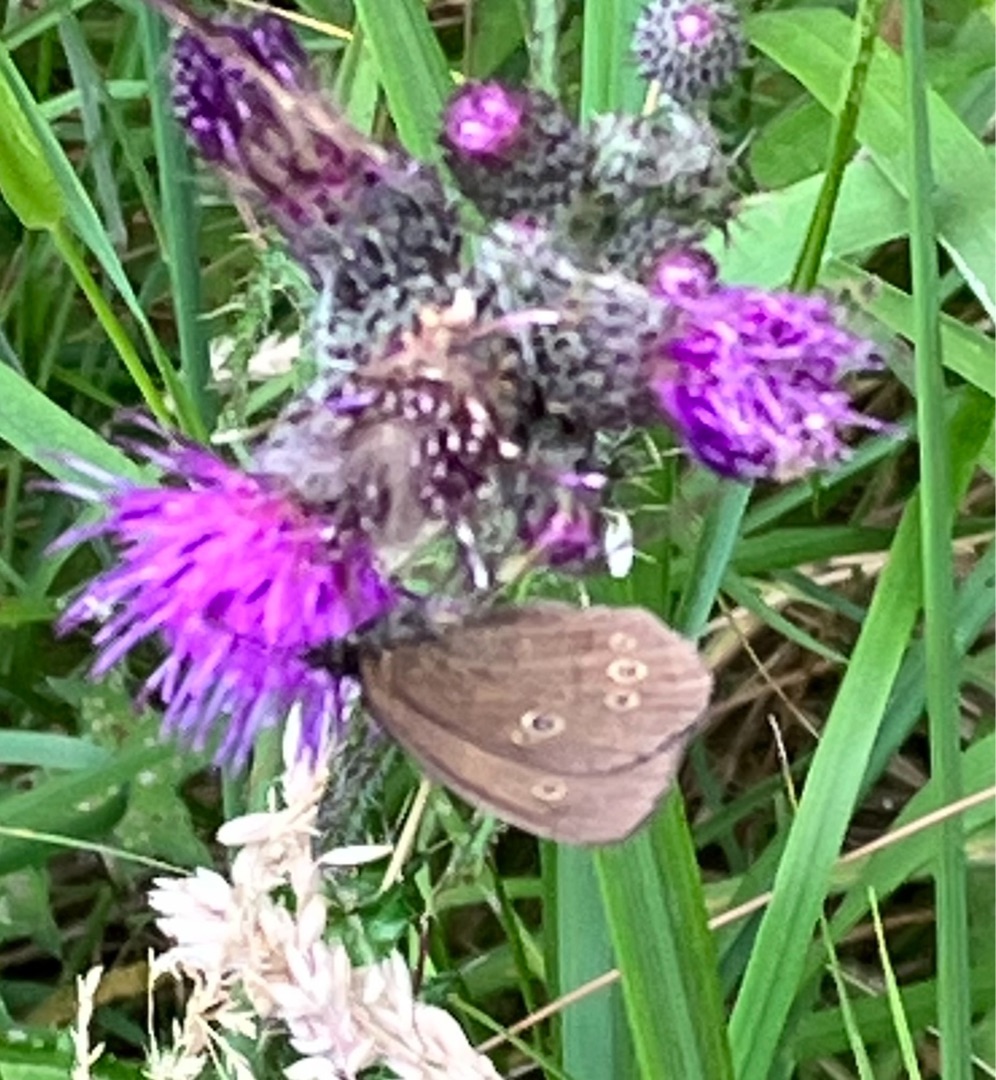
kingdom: Animalia
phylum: Arthropoda
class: Insecta
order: Lepidoptera
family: Nymphalidae
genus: Aphantopus
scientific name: Aphantopus hyperantus
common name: Engrandøje
